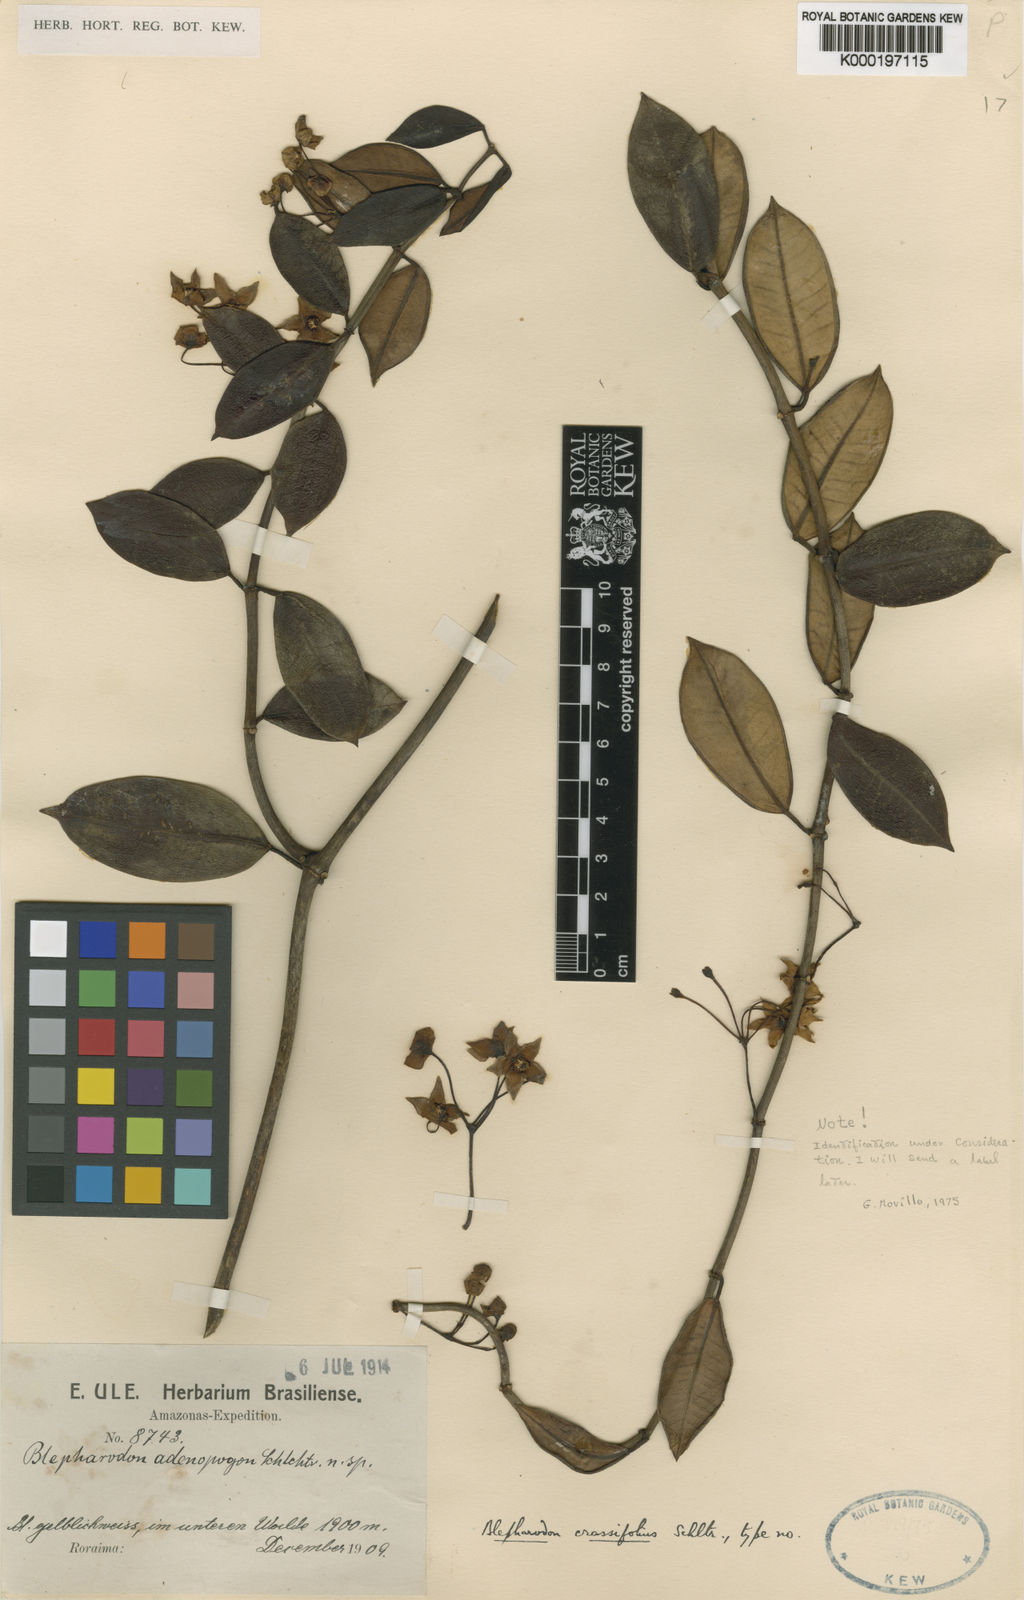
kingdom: Plantae
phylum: Tracheophyta
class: Magnoliopsida
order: Gentianales
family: Apocynaceae
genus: Blepharodon
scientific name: Blepharodon grandiflorum
